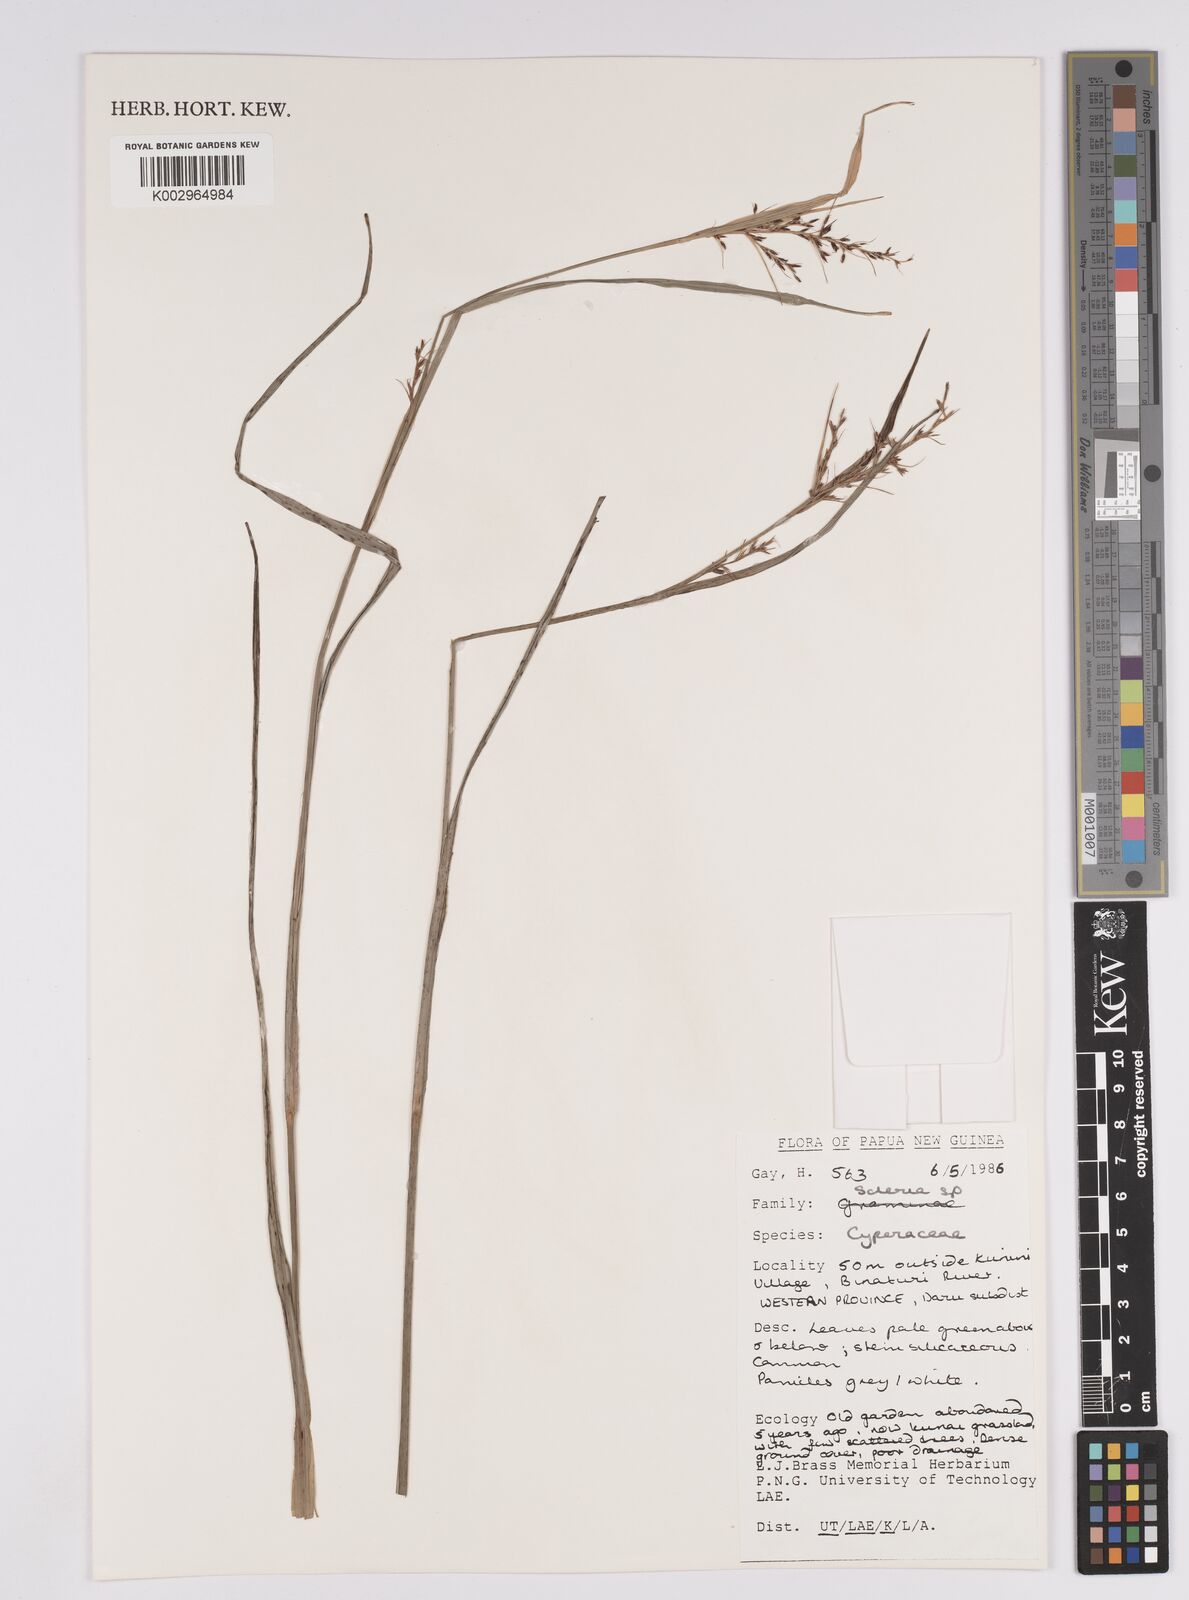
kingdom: Plantae
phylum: Tracheophyta
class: Liliopsida
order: Poales
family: Cyperaceae
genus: Scleria
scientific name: Scleria
